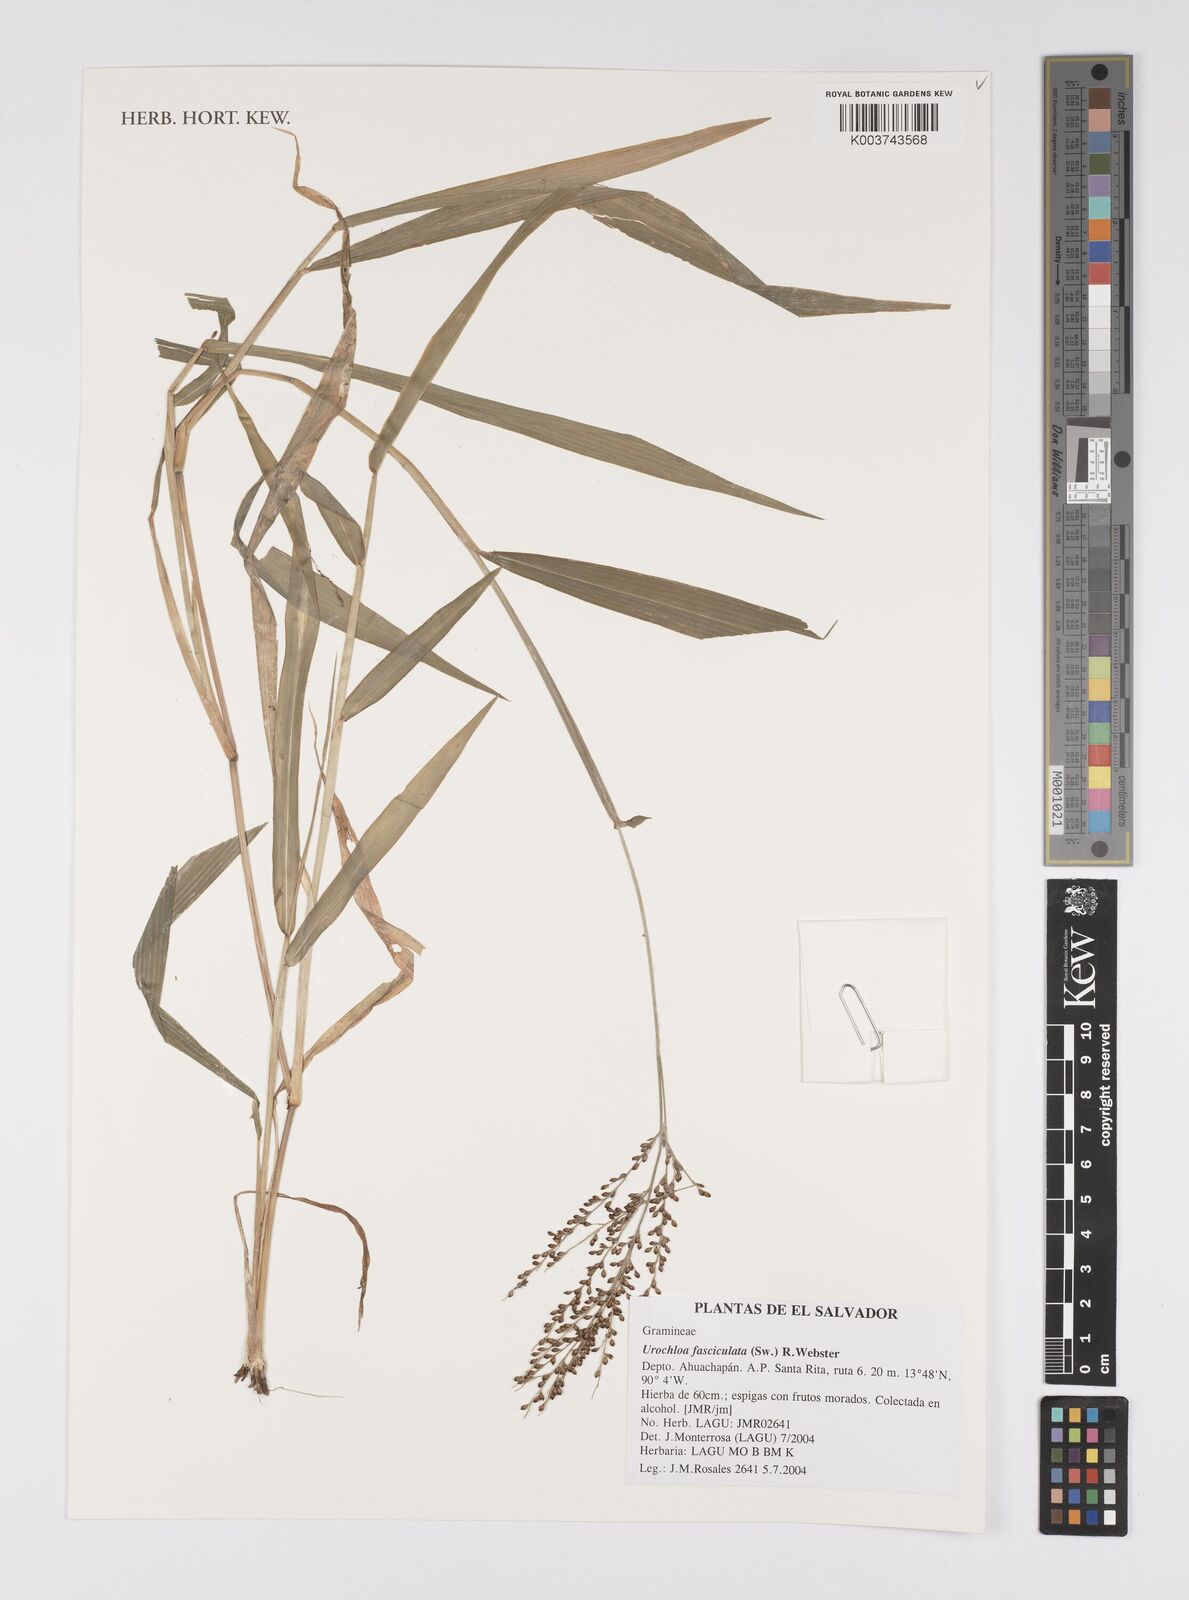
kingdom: Plantae
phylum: Tracheophyta
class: Liliopsida
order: Poales
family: Poaceae
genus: Urochloa
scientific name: Urochloa fusca
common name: Browntop signal grass
